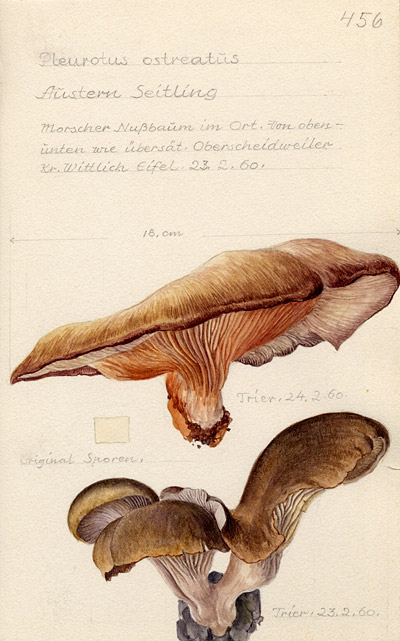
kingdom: Fungi
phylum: Basidiomycota
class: Agaricomycetes
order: Agaricales
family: Pleurotaceae
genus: Pleurotus
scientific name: Pleurotus ostreatus
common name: Oyster mushroom
